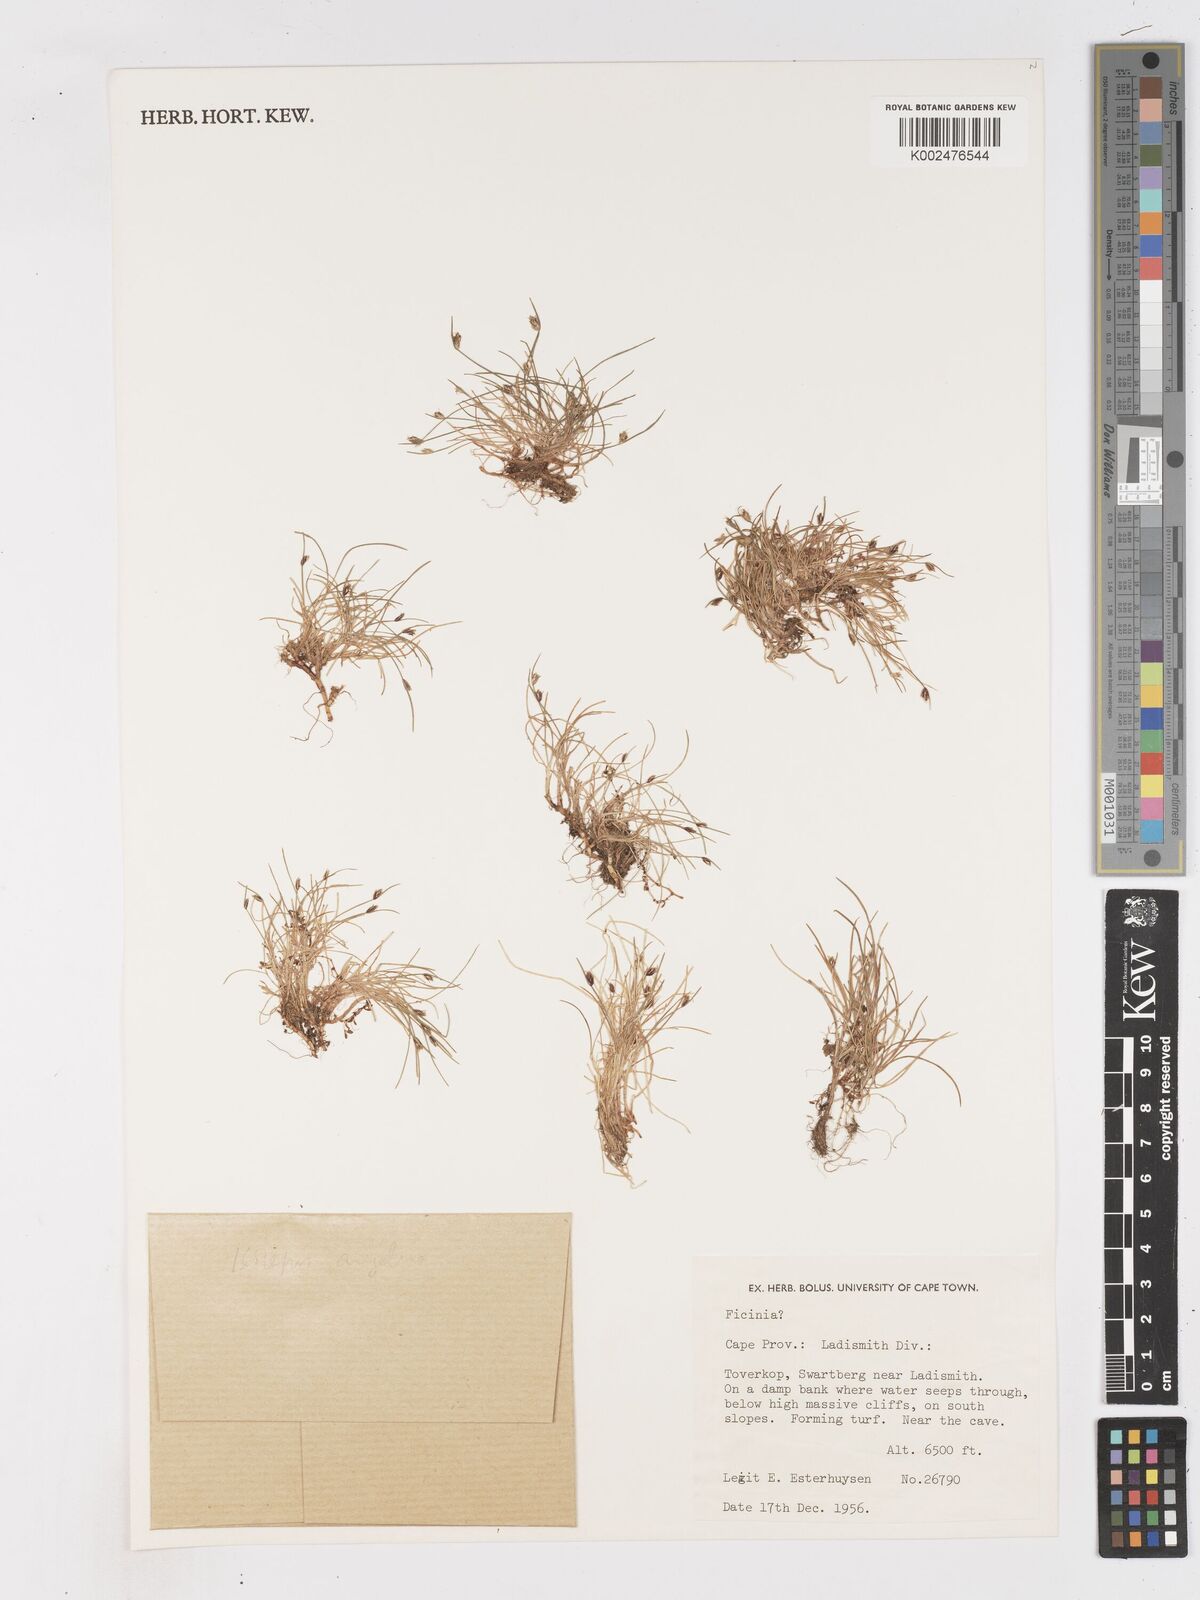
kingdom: Plantae
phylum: Tracheophyta
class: Liliopsida
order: Poales
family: Cyperaceae
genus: Ficinia
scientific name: Ficinia
